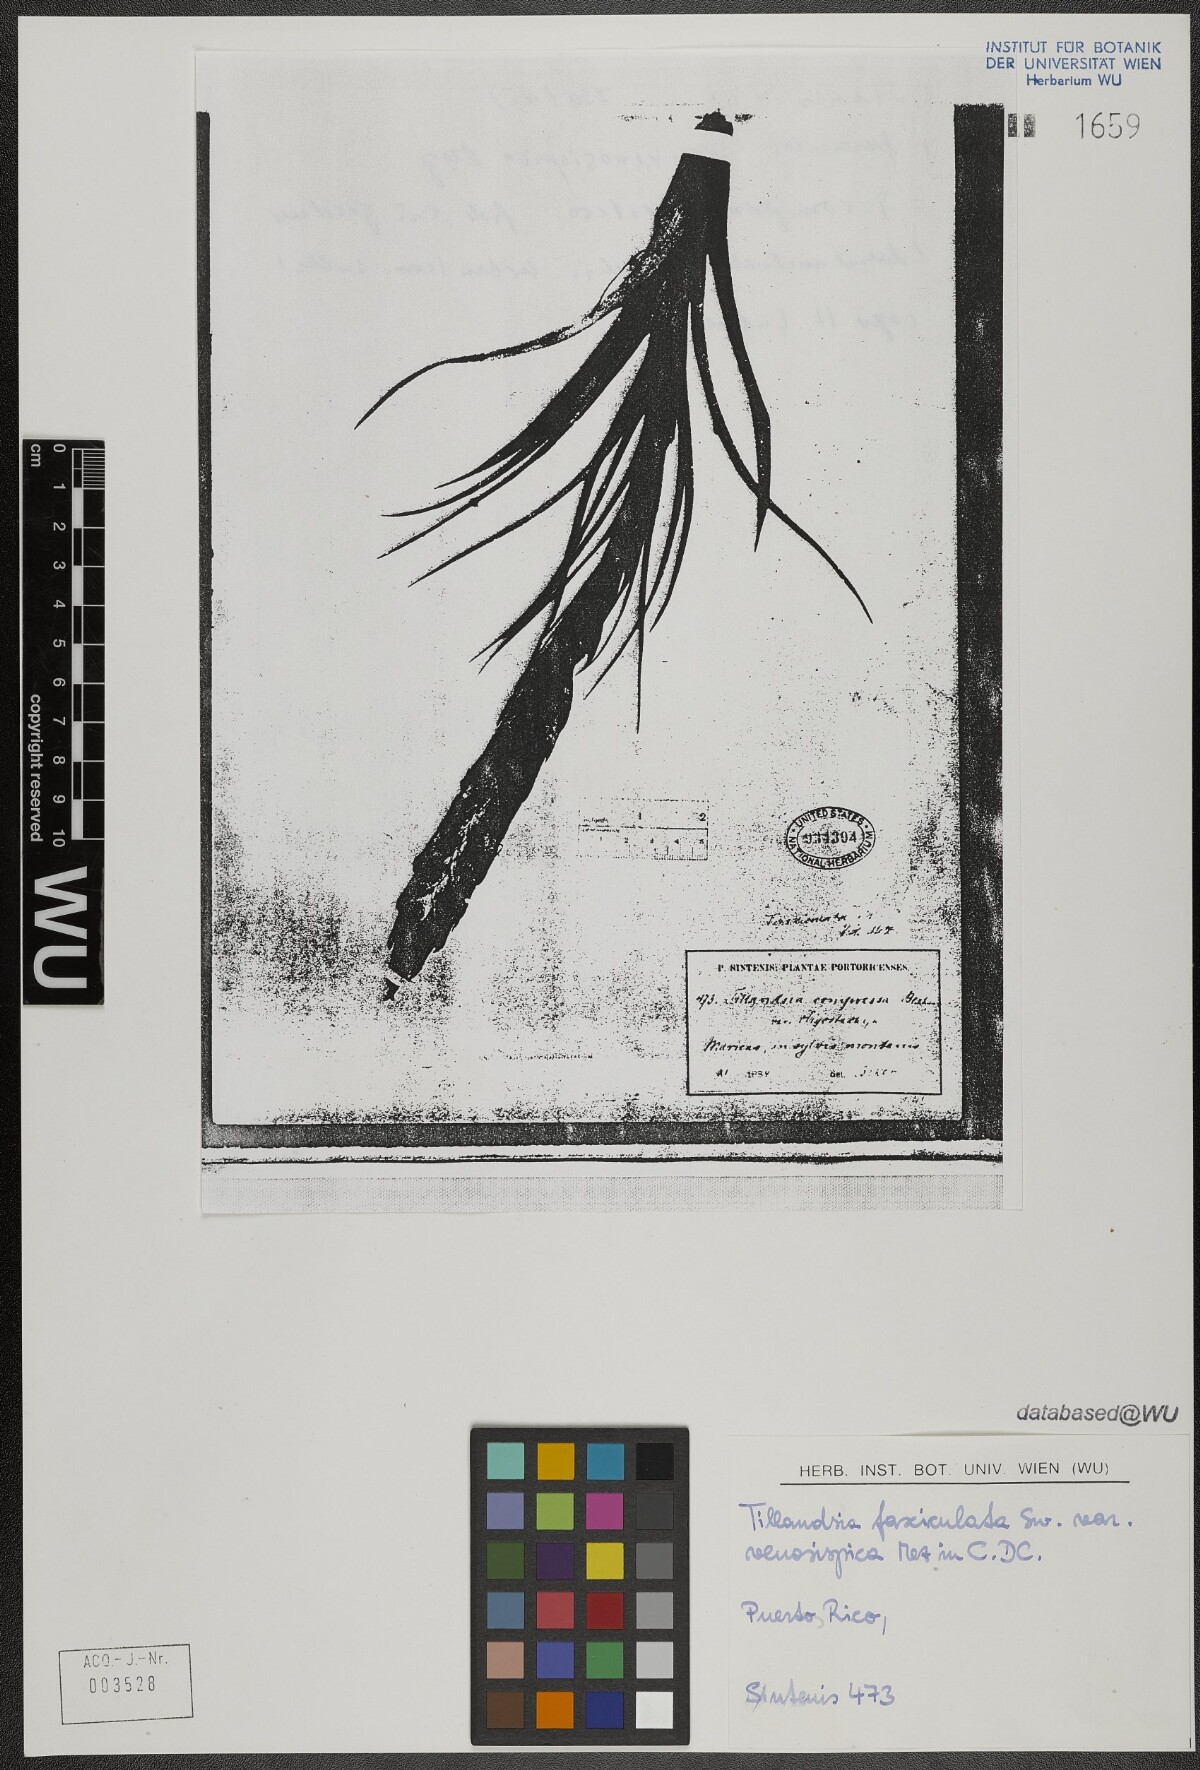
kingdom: Plantae
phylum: Tracheophyta
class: Liliopsida
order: Poales
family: Bromeliaceae
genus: Tillandsia
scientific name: Tillandsia compressa
